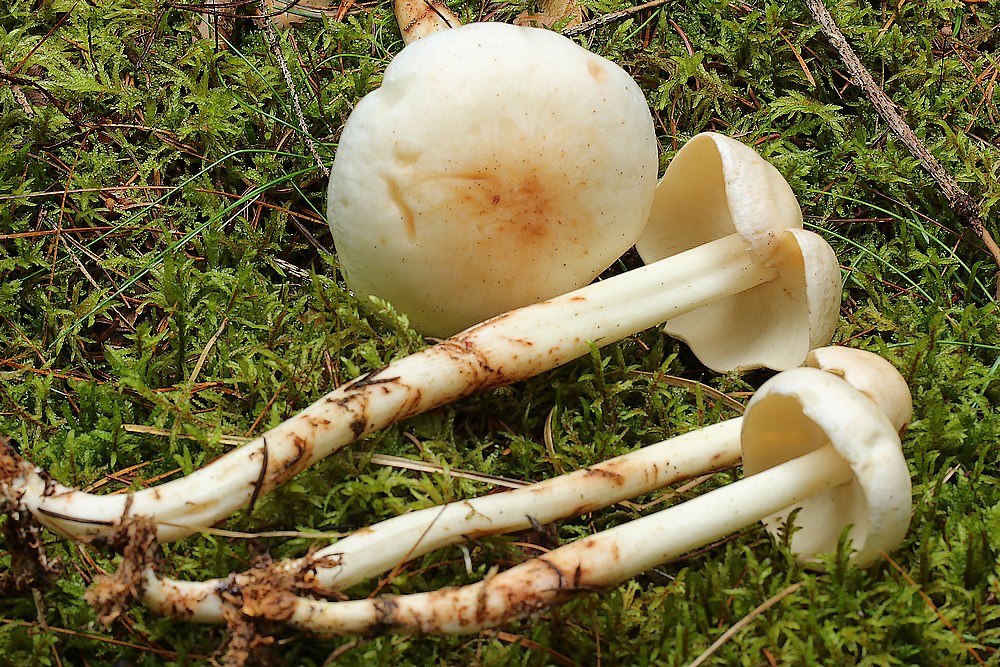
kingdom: Fungi
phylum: Basidiomycota
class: Agaricomycetes
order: Agaricales
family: Omphalotaceae
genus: Rhodocollybia
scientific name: Rhodocollybia maculata
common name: plettet fladhat
